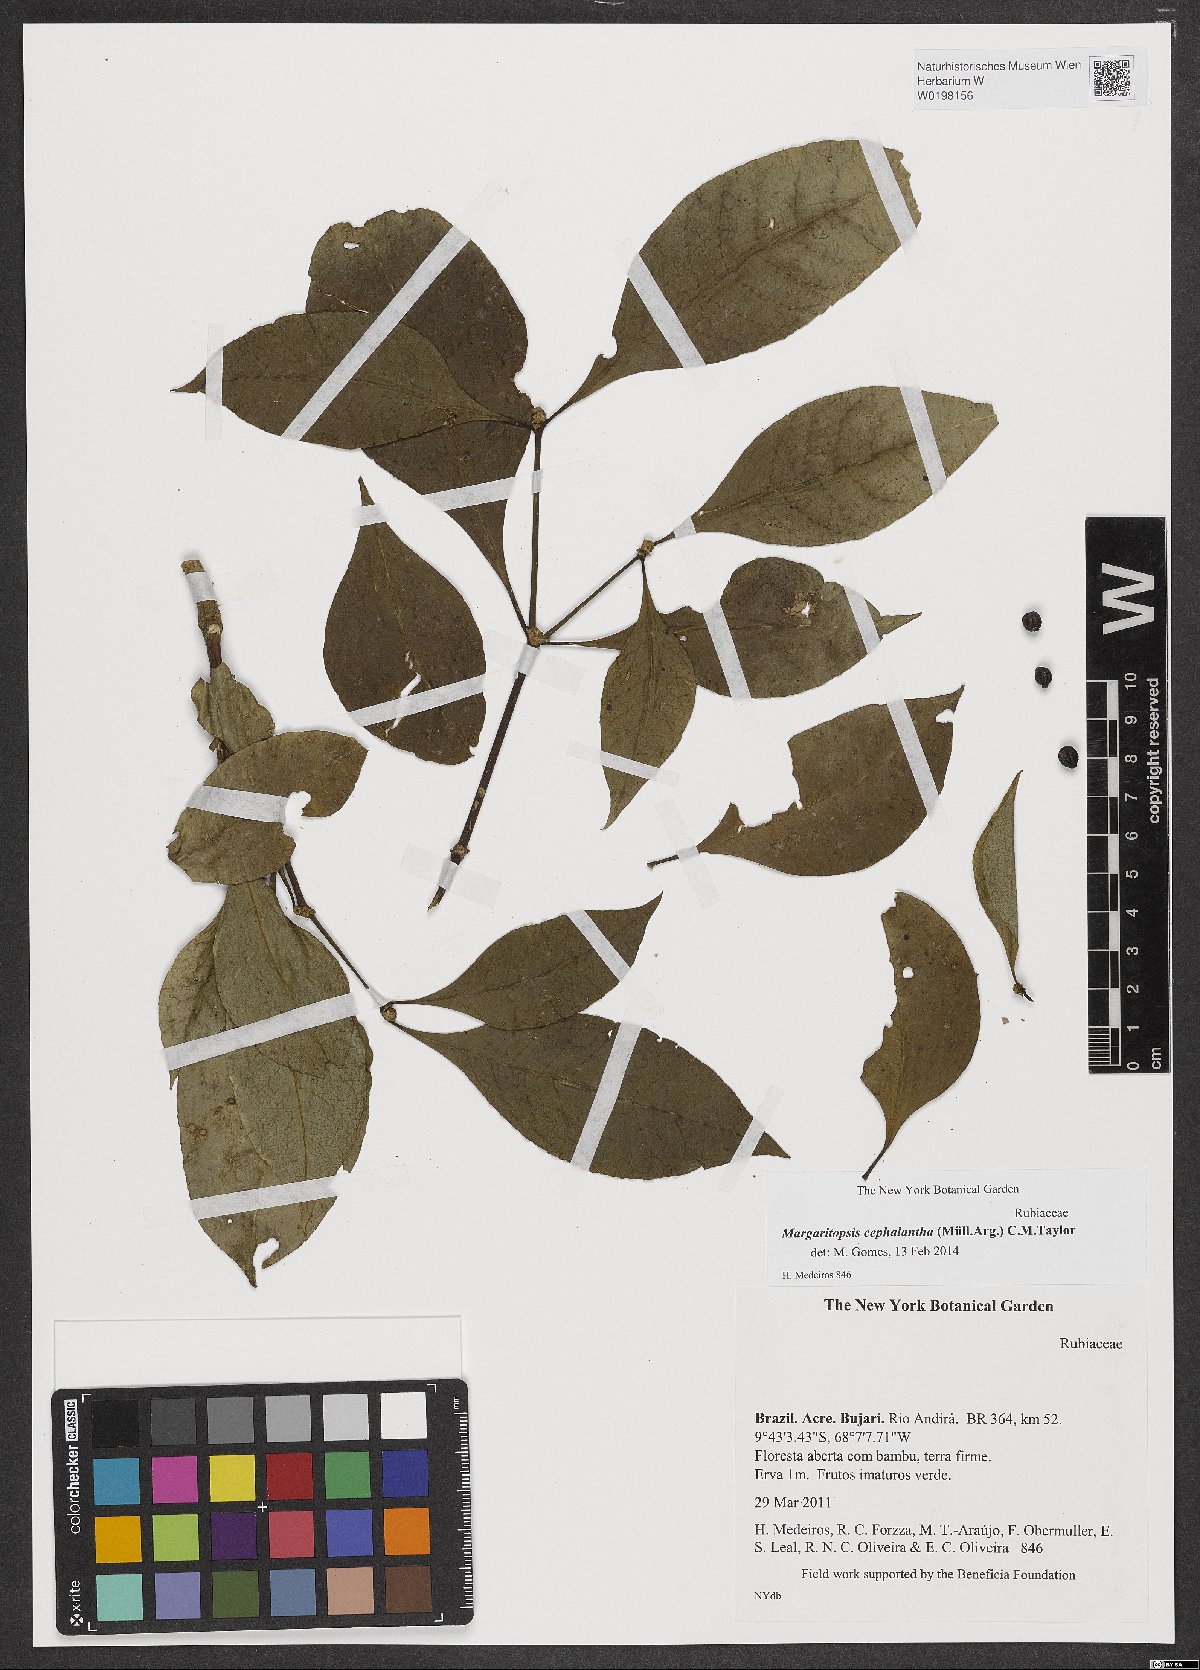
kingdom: Plantae
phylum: Tracheophyta
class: Magnoliopsida
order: Gentianales
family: Rubiaceae
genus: Eumachia
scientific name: Eumachia cephalantha
